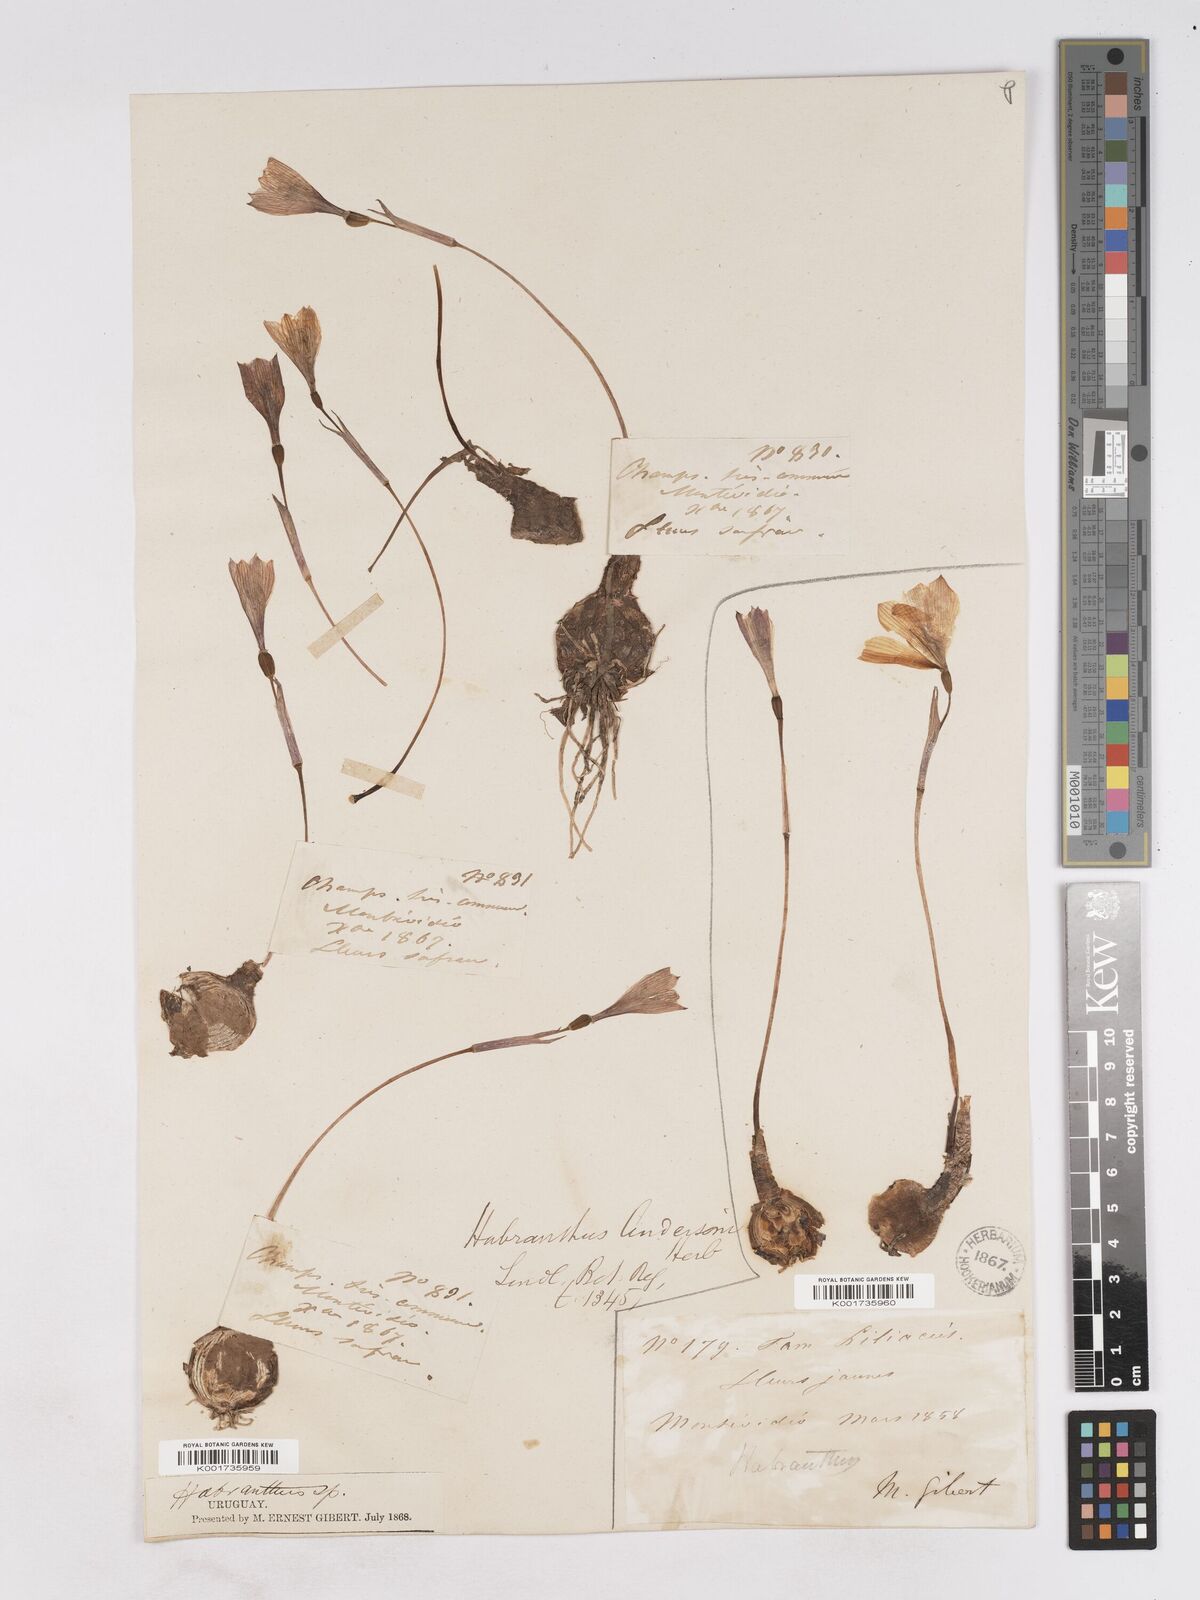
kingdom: Plantae
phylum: Tracheophyta
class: Liliopsida
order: Asparagales
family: Amaryllidaceae
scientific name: Amaryllidaceae
